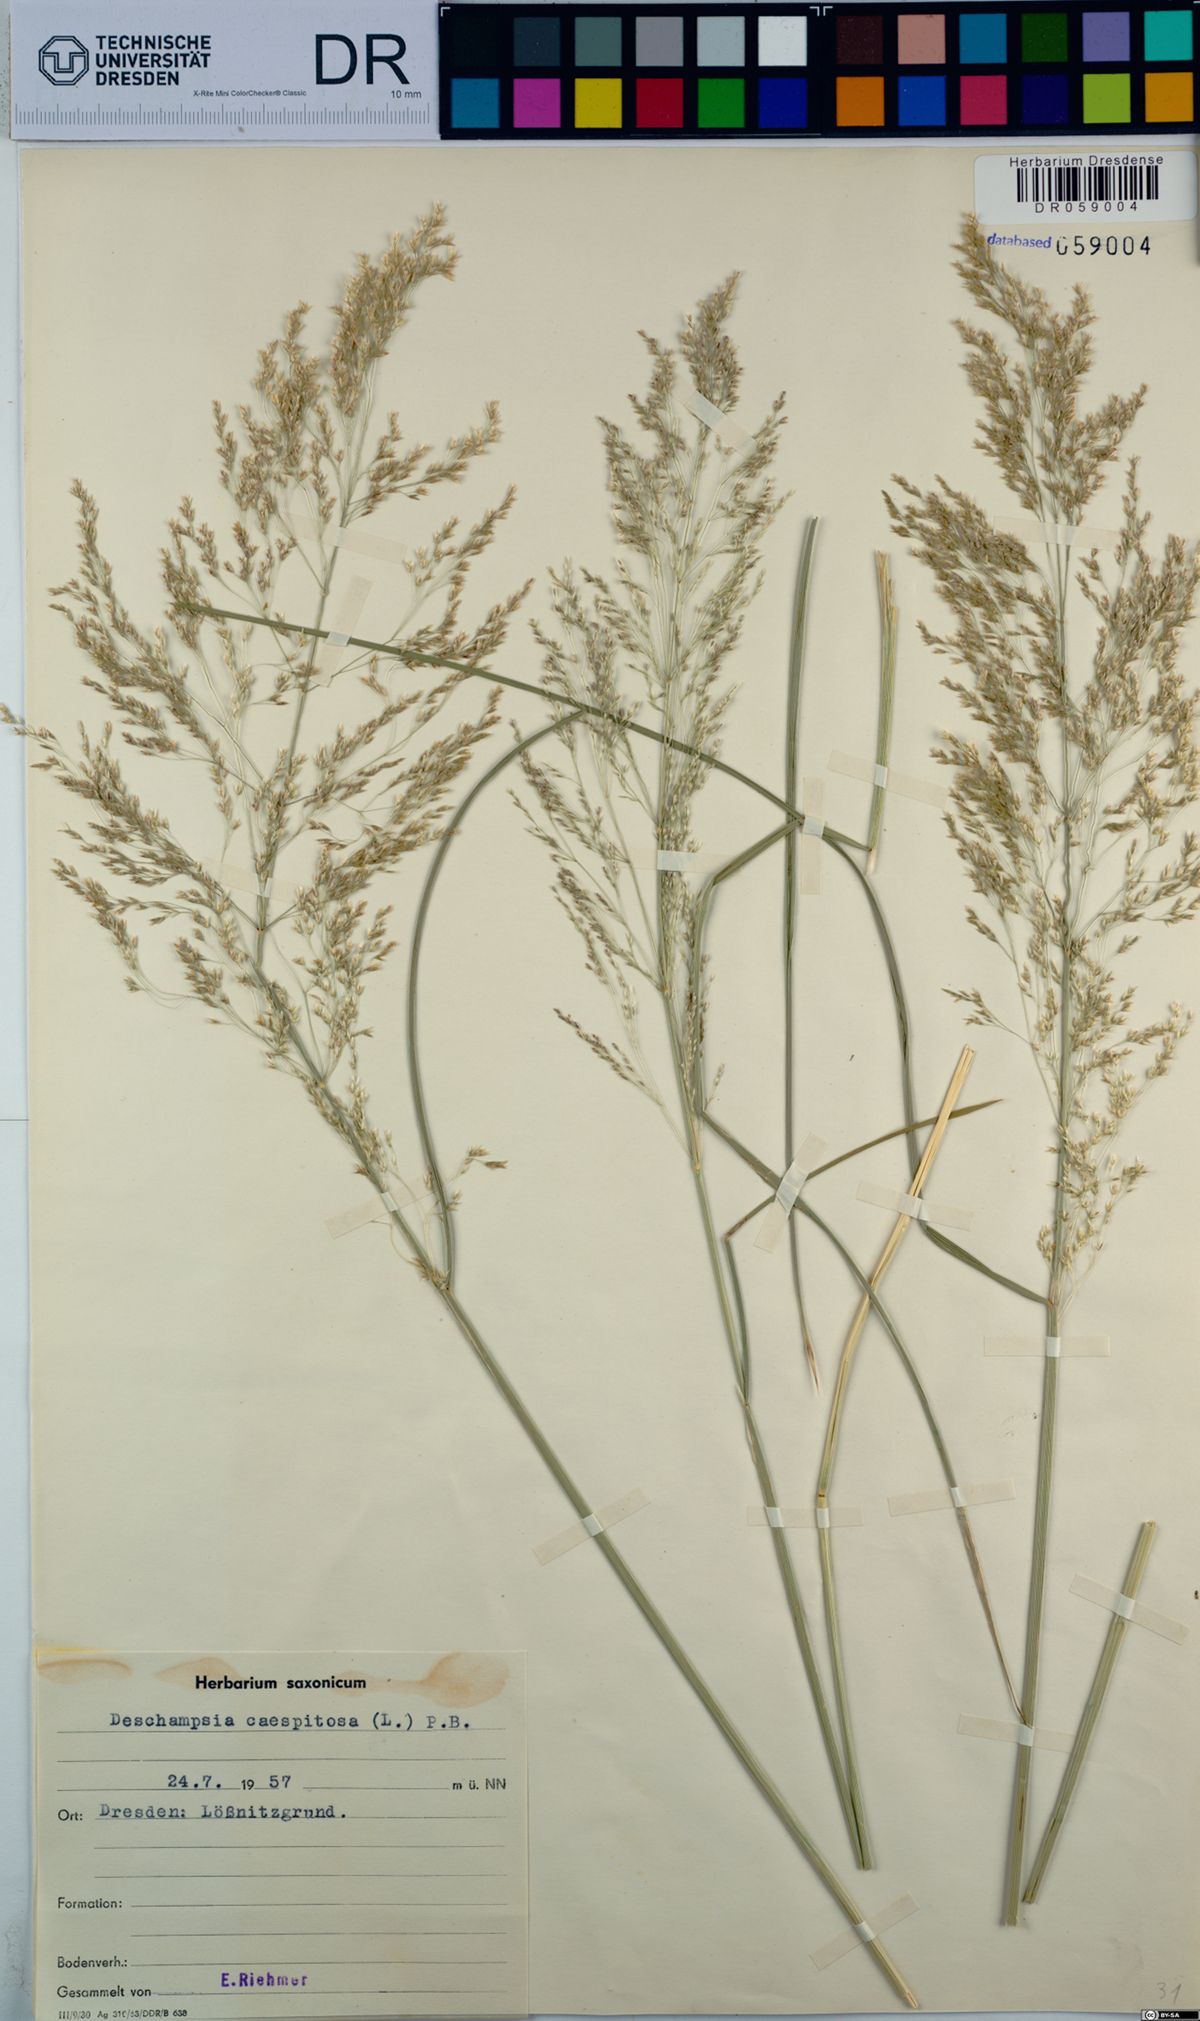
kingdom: Plantae
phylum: Tracheophyta
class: Liliopsida
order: Poales
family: Poaceae
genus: Deschampsia
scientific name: Deschampsia cespitosa
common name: Tufted hair-grass
